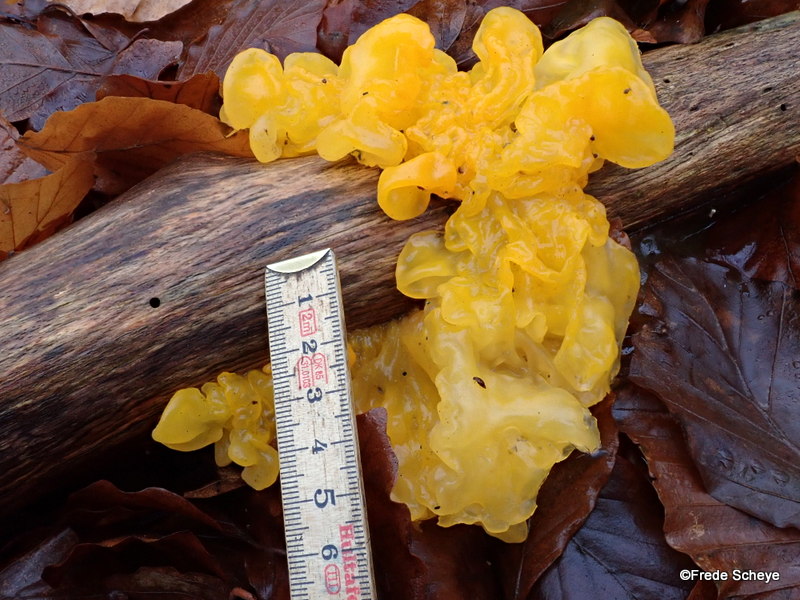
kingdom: Fungi
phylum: Basidiomycota
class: Tremellomycetes
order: Tremellales
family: Tremellaceae
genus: Tremella
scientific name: Tremella mesenterica
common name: gul bævresvamp
